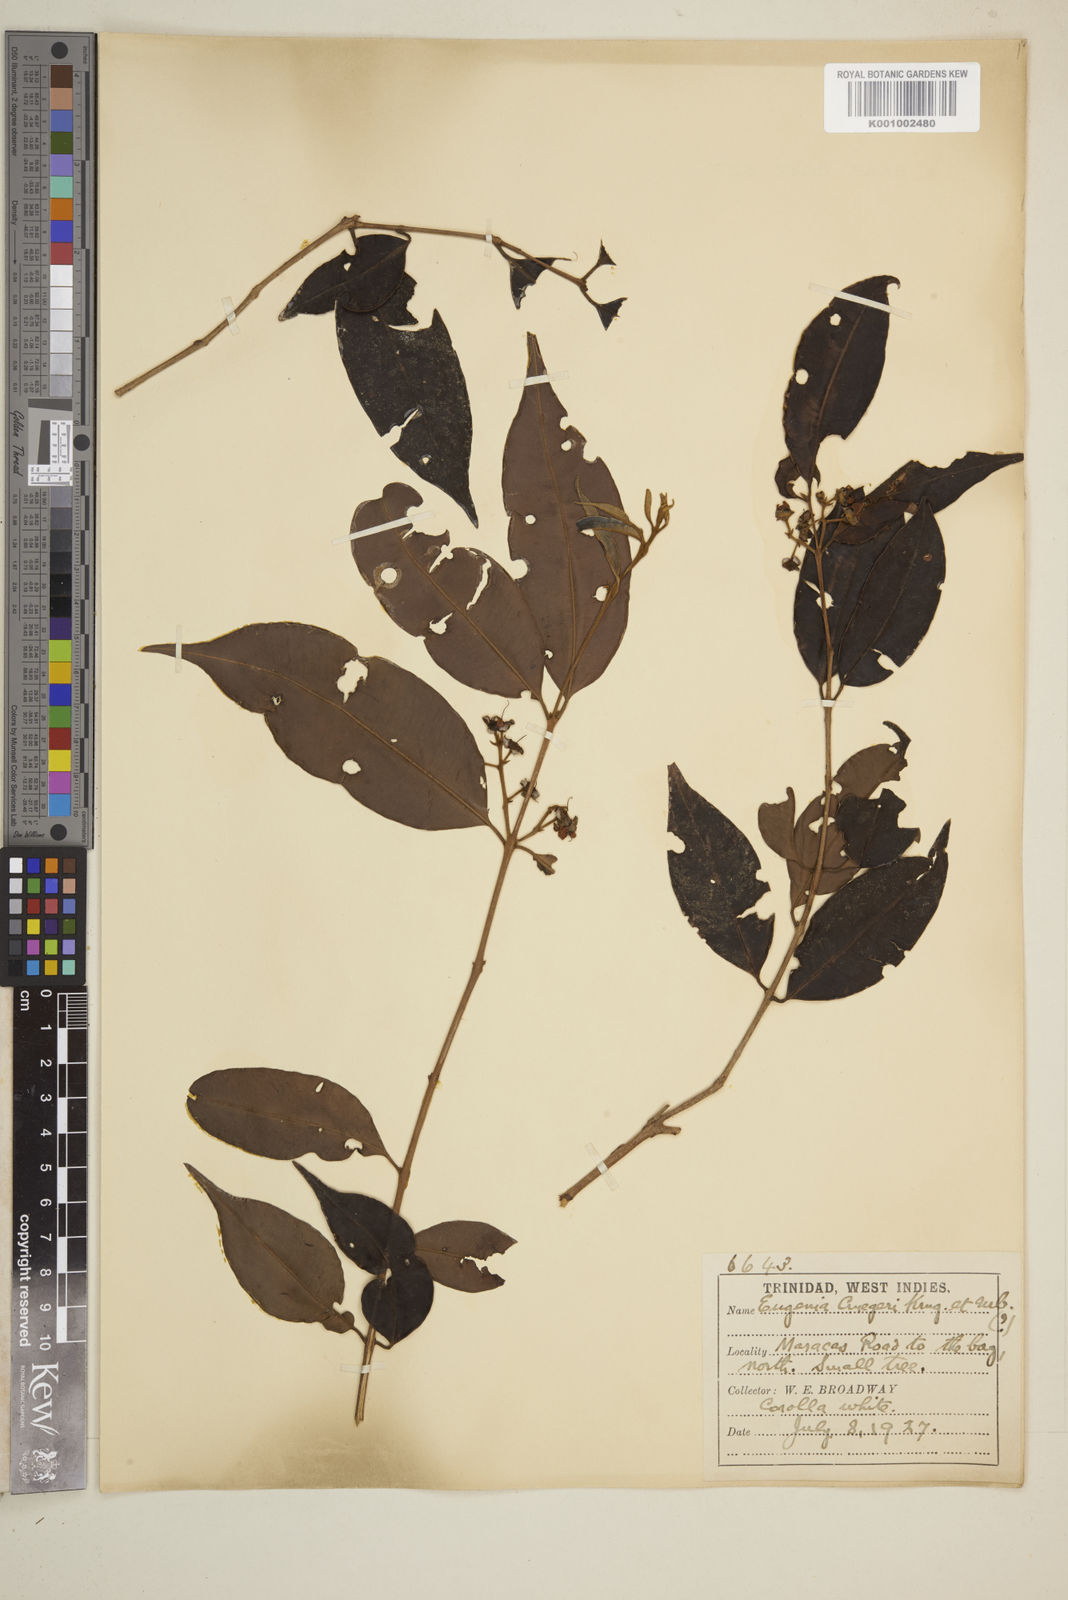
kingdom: Plantae
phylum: Tracheophyta
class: Magnoliopsida
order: Myrtales
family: Myrtaceae
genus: Eugenia
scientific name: Eugenia limbosa
